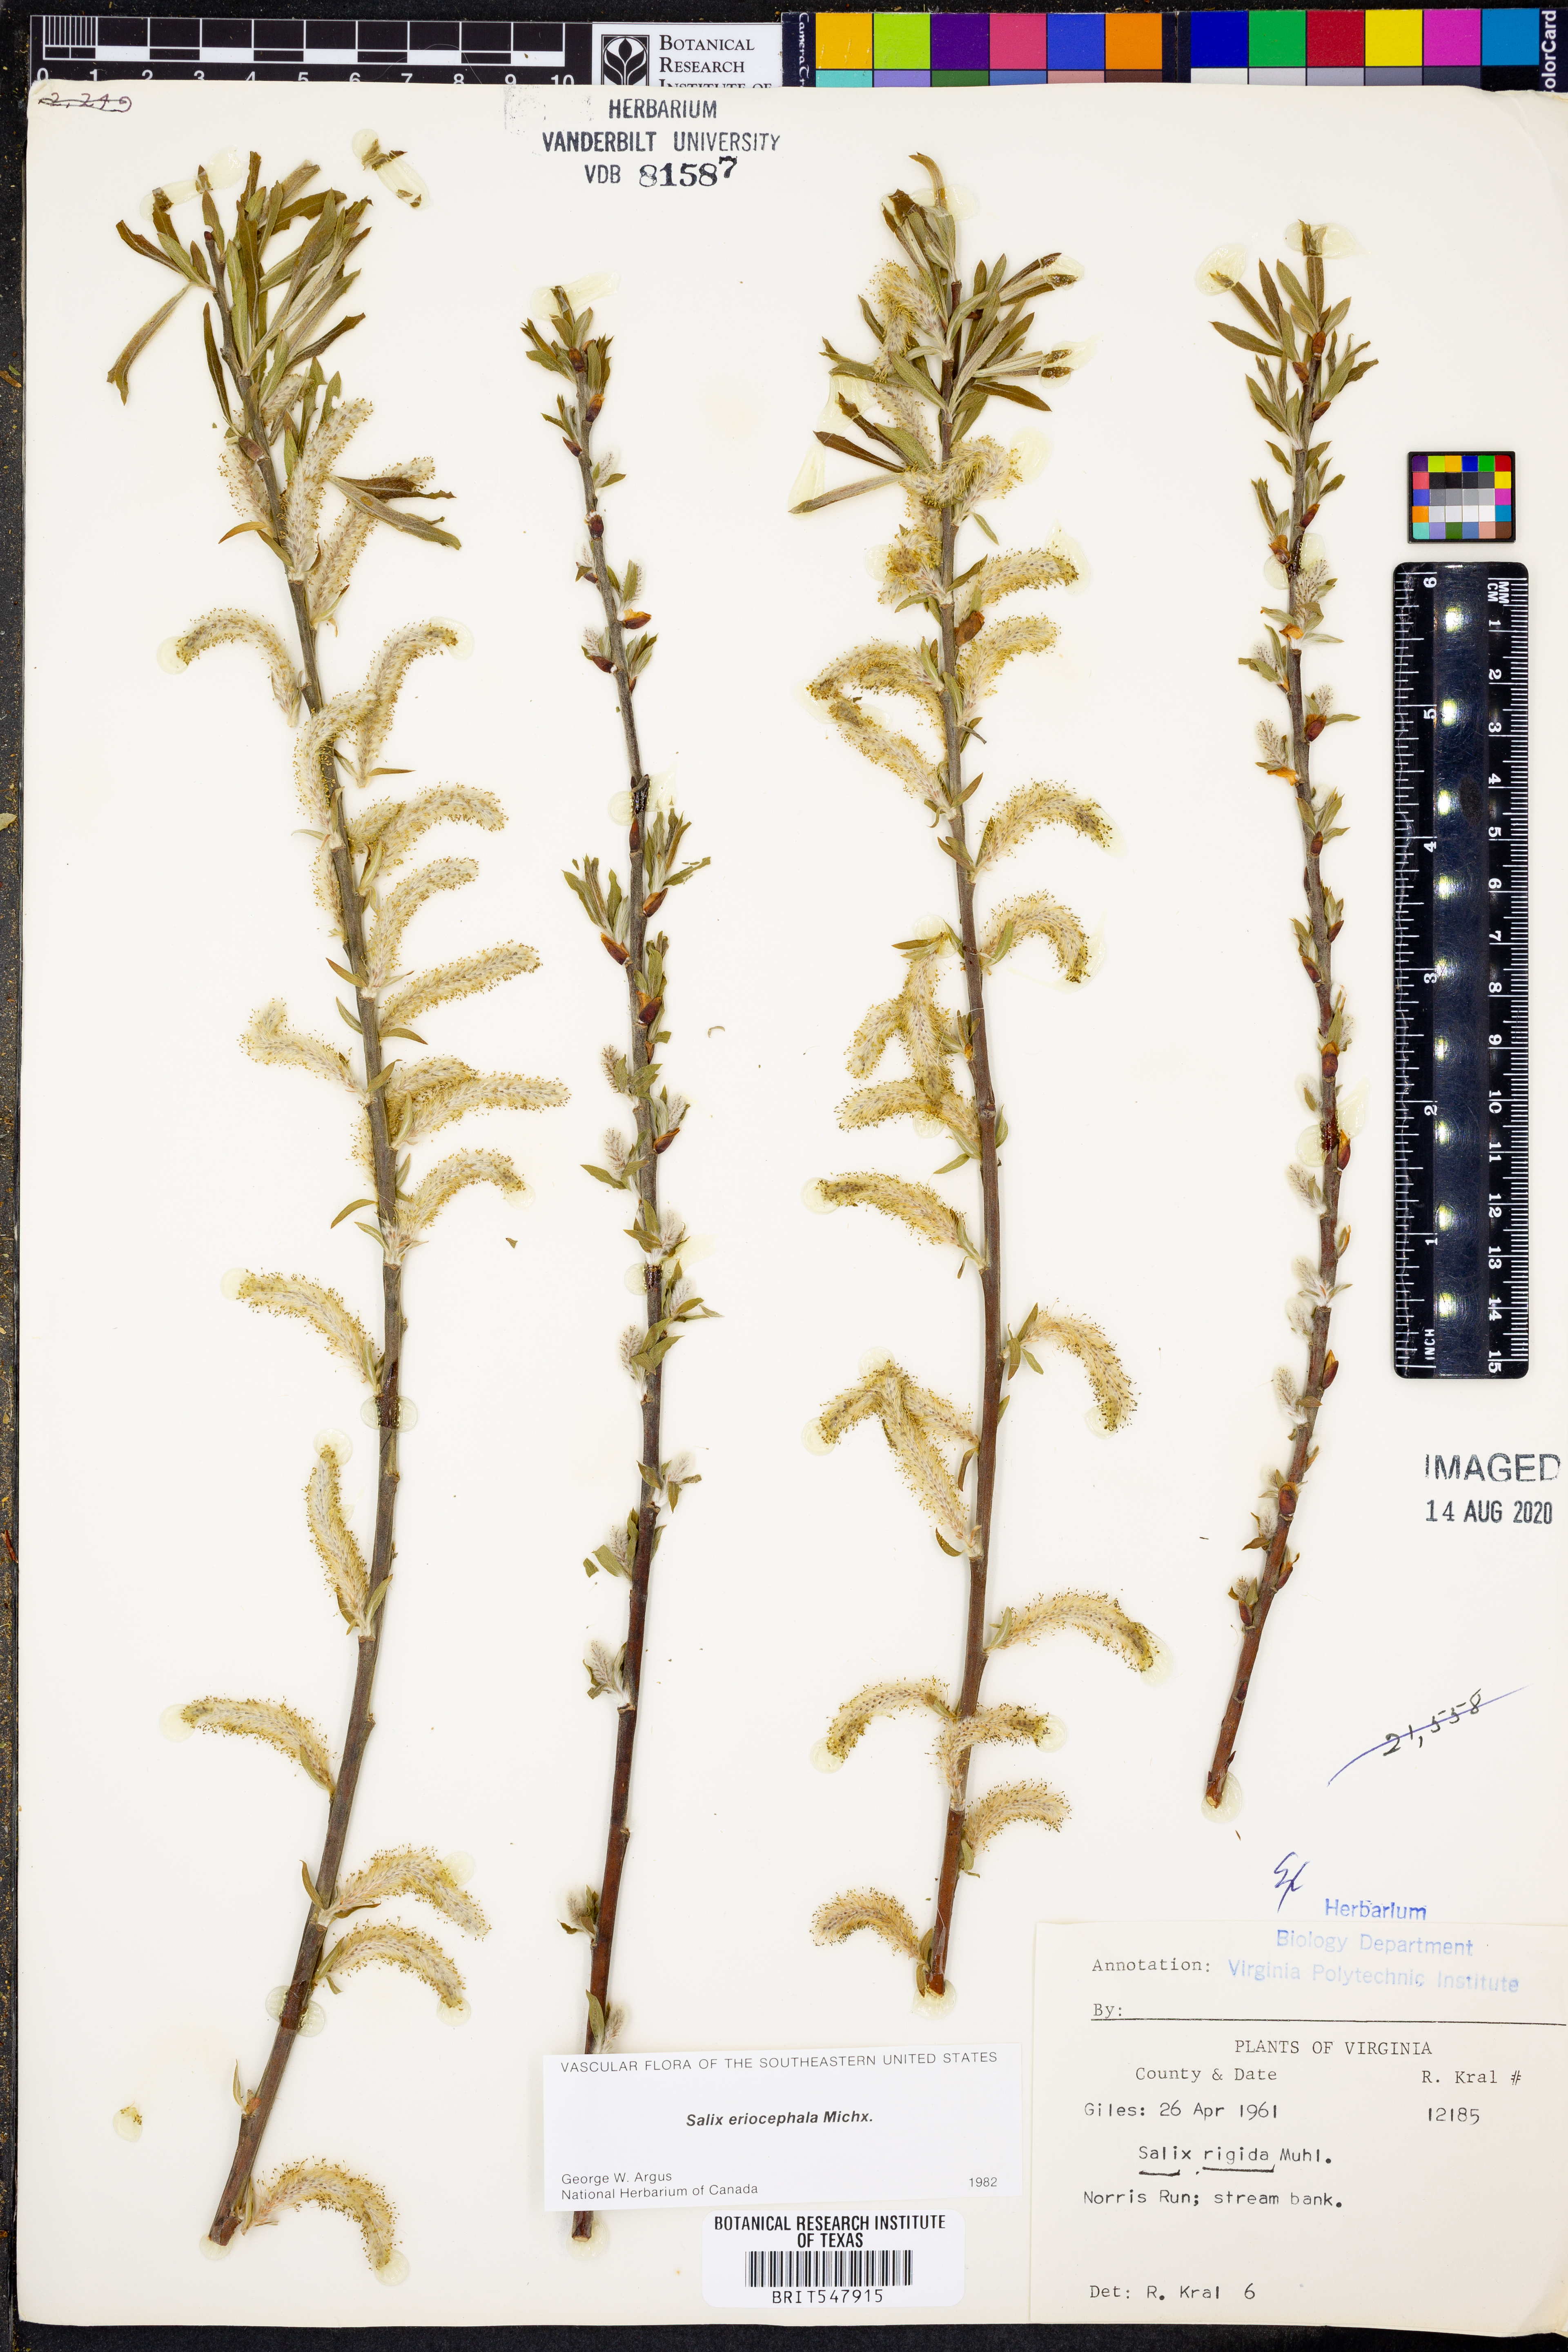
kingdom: Plantae
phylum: Tracheophyta
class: Magnoliopsida
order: Malpighiales
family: Salicaceae
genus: Salix
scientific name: Salix eriocephala
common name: Heart-leaved willow
